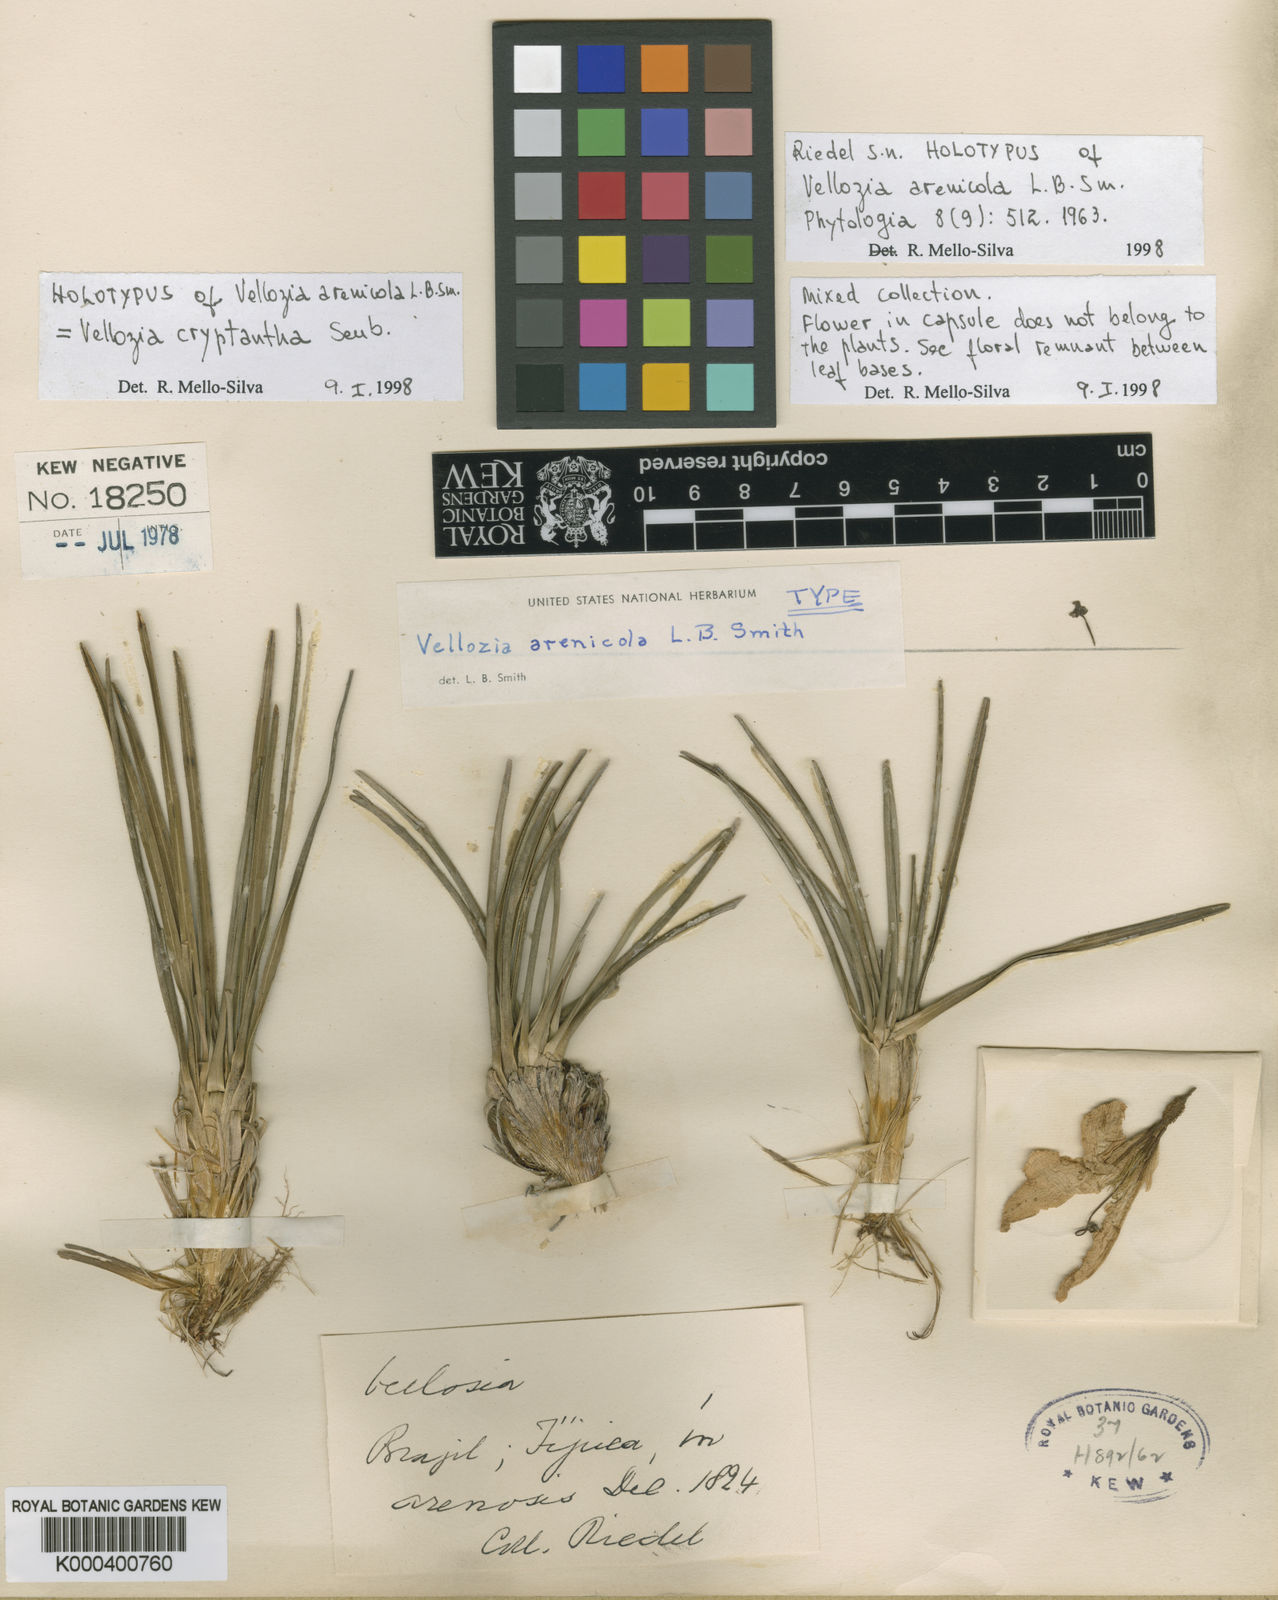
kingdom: Plantae
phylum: Tracheophyta
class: Liliopsida
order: Pandanales
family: Velloziaceae
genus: Vellozia
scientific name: Vellozia cryptantha
